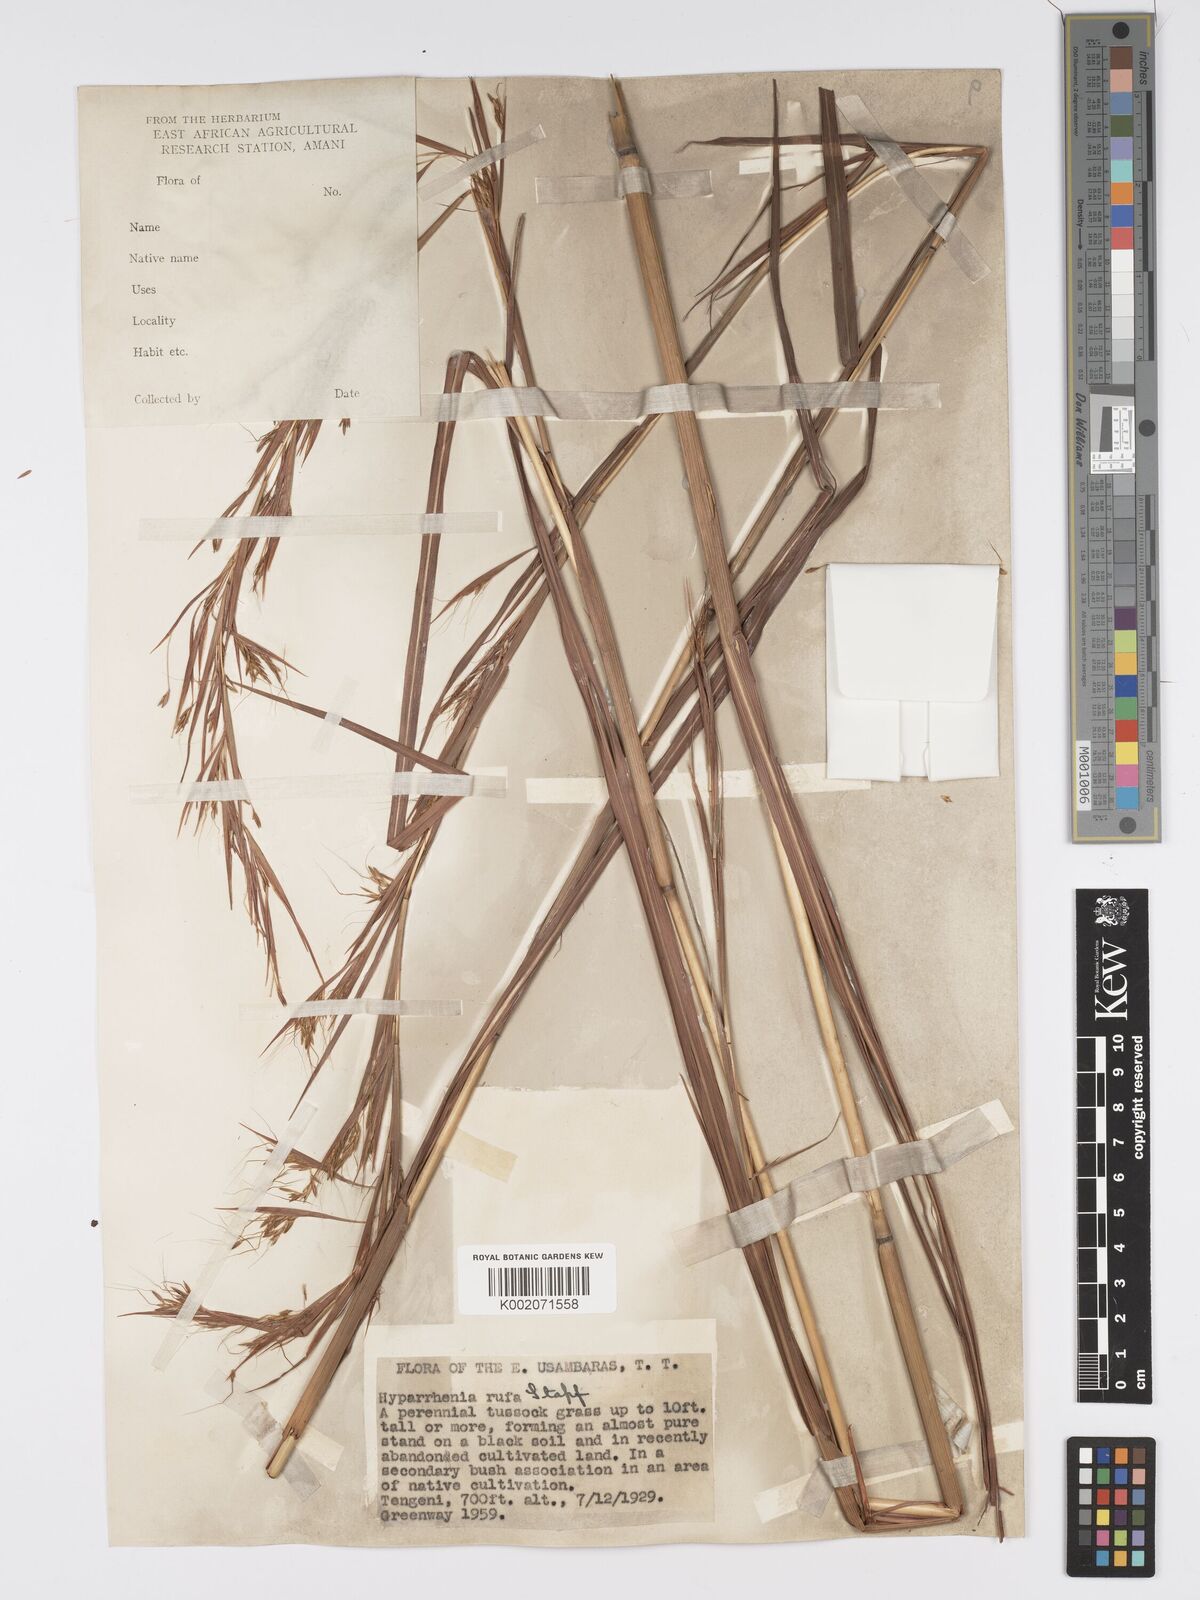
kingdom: Plantae
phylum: Tracheophyta
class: Liliopsida
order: Poales
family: Poaceae
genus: Hyparrhenia
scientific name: Hyparrhenia rufa
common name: Jaraguagrass
